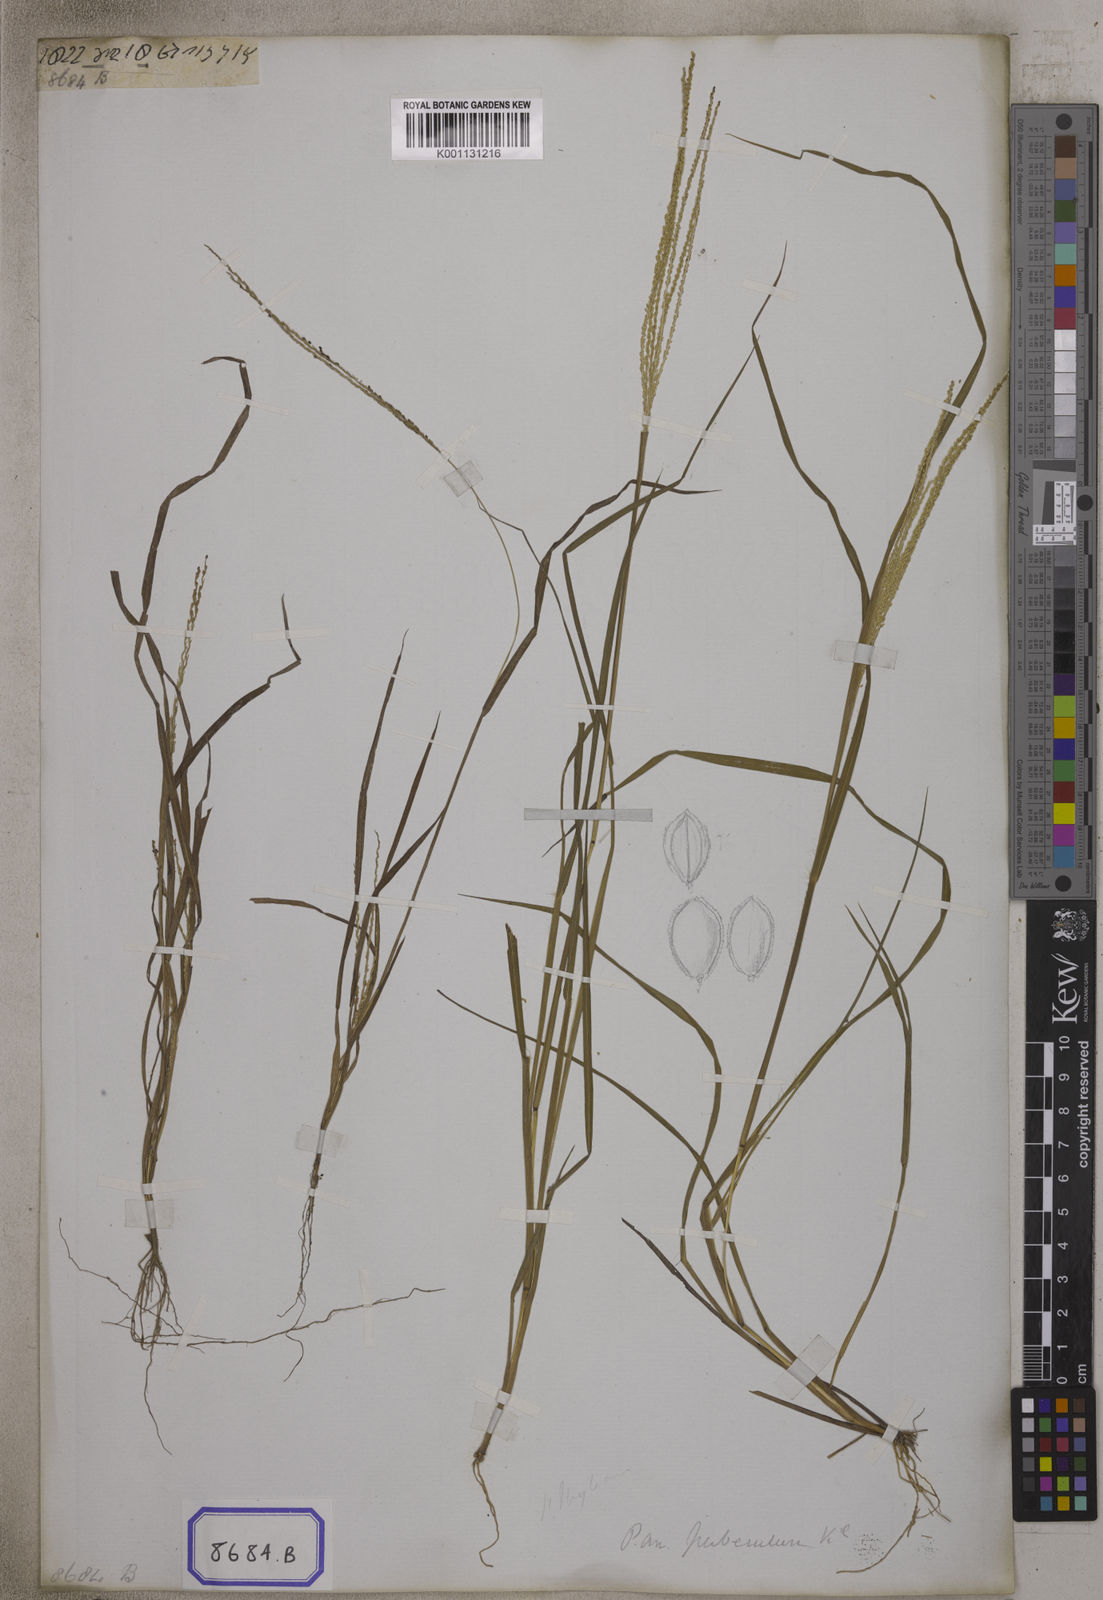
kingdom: Plantae
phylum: Tracheophyta
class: Liliopsida
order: Poales
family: Poaceae
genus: Panicum
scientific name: Panicum
